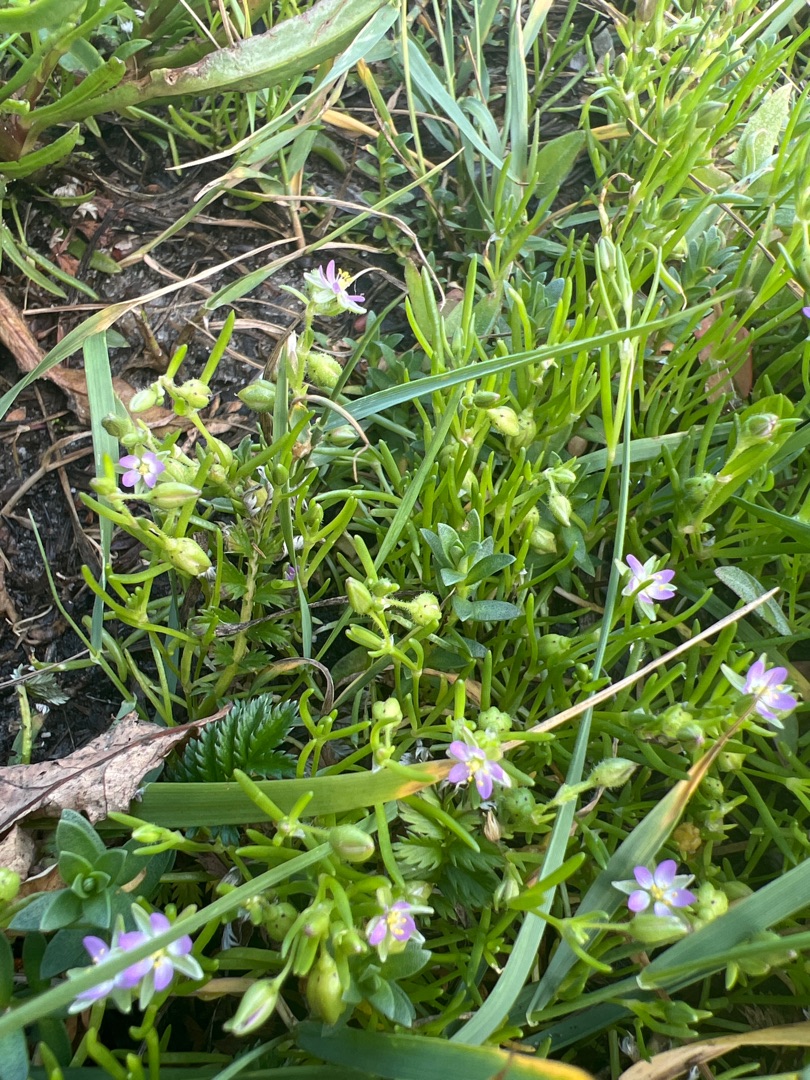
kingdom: Plantae
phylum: Tracheophyta
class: Magnoliopsida
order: Caryophyllales
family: Caryophyllaceae
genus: Spergularia
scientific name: Spergularia marina
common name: Kødet hindeknæ
